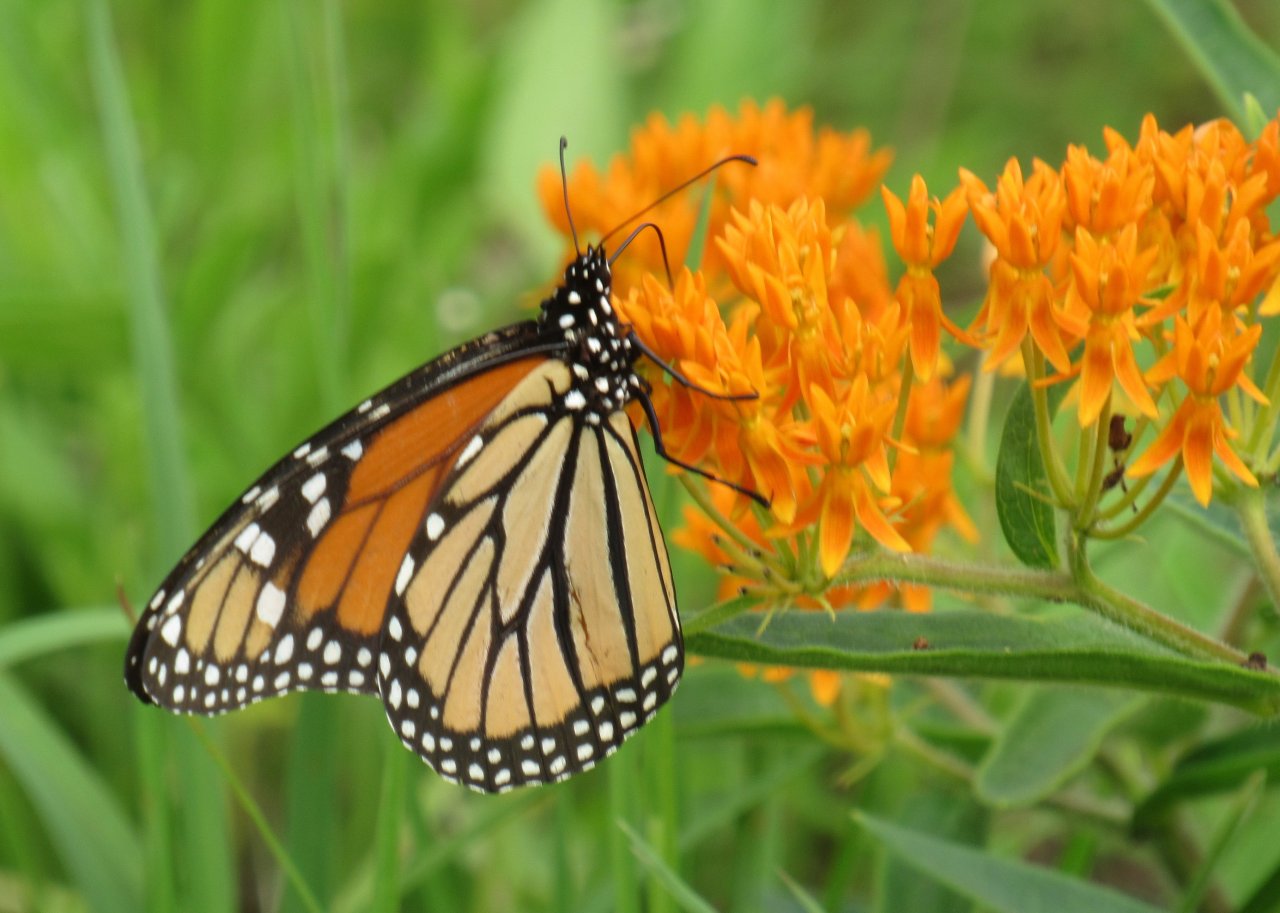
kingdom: Animalia
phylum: Arthropoda
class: Insecta
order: Lepidoptera
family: Nymphalidae
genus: Danaus
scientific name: Danaus plexippus
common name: Monarch
